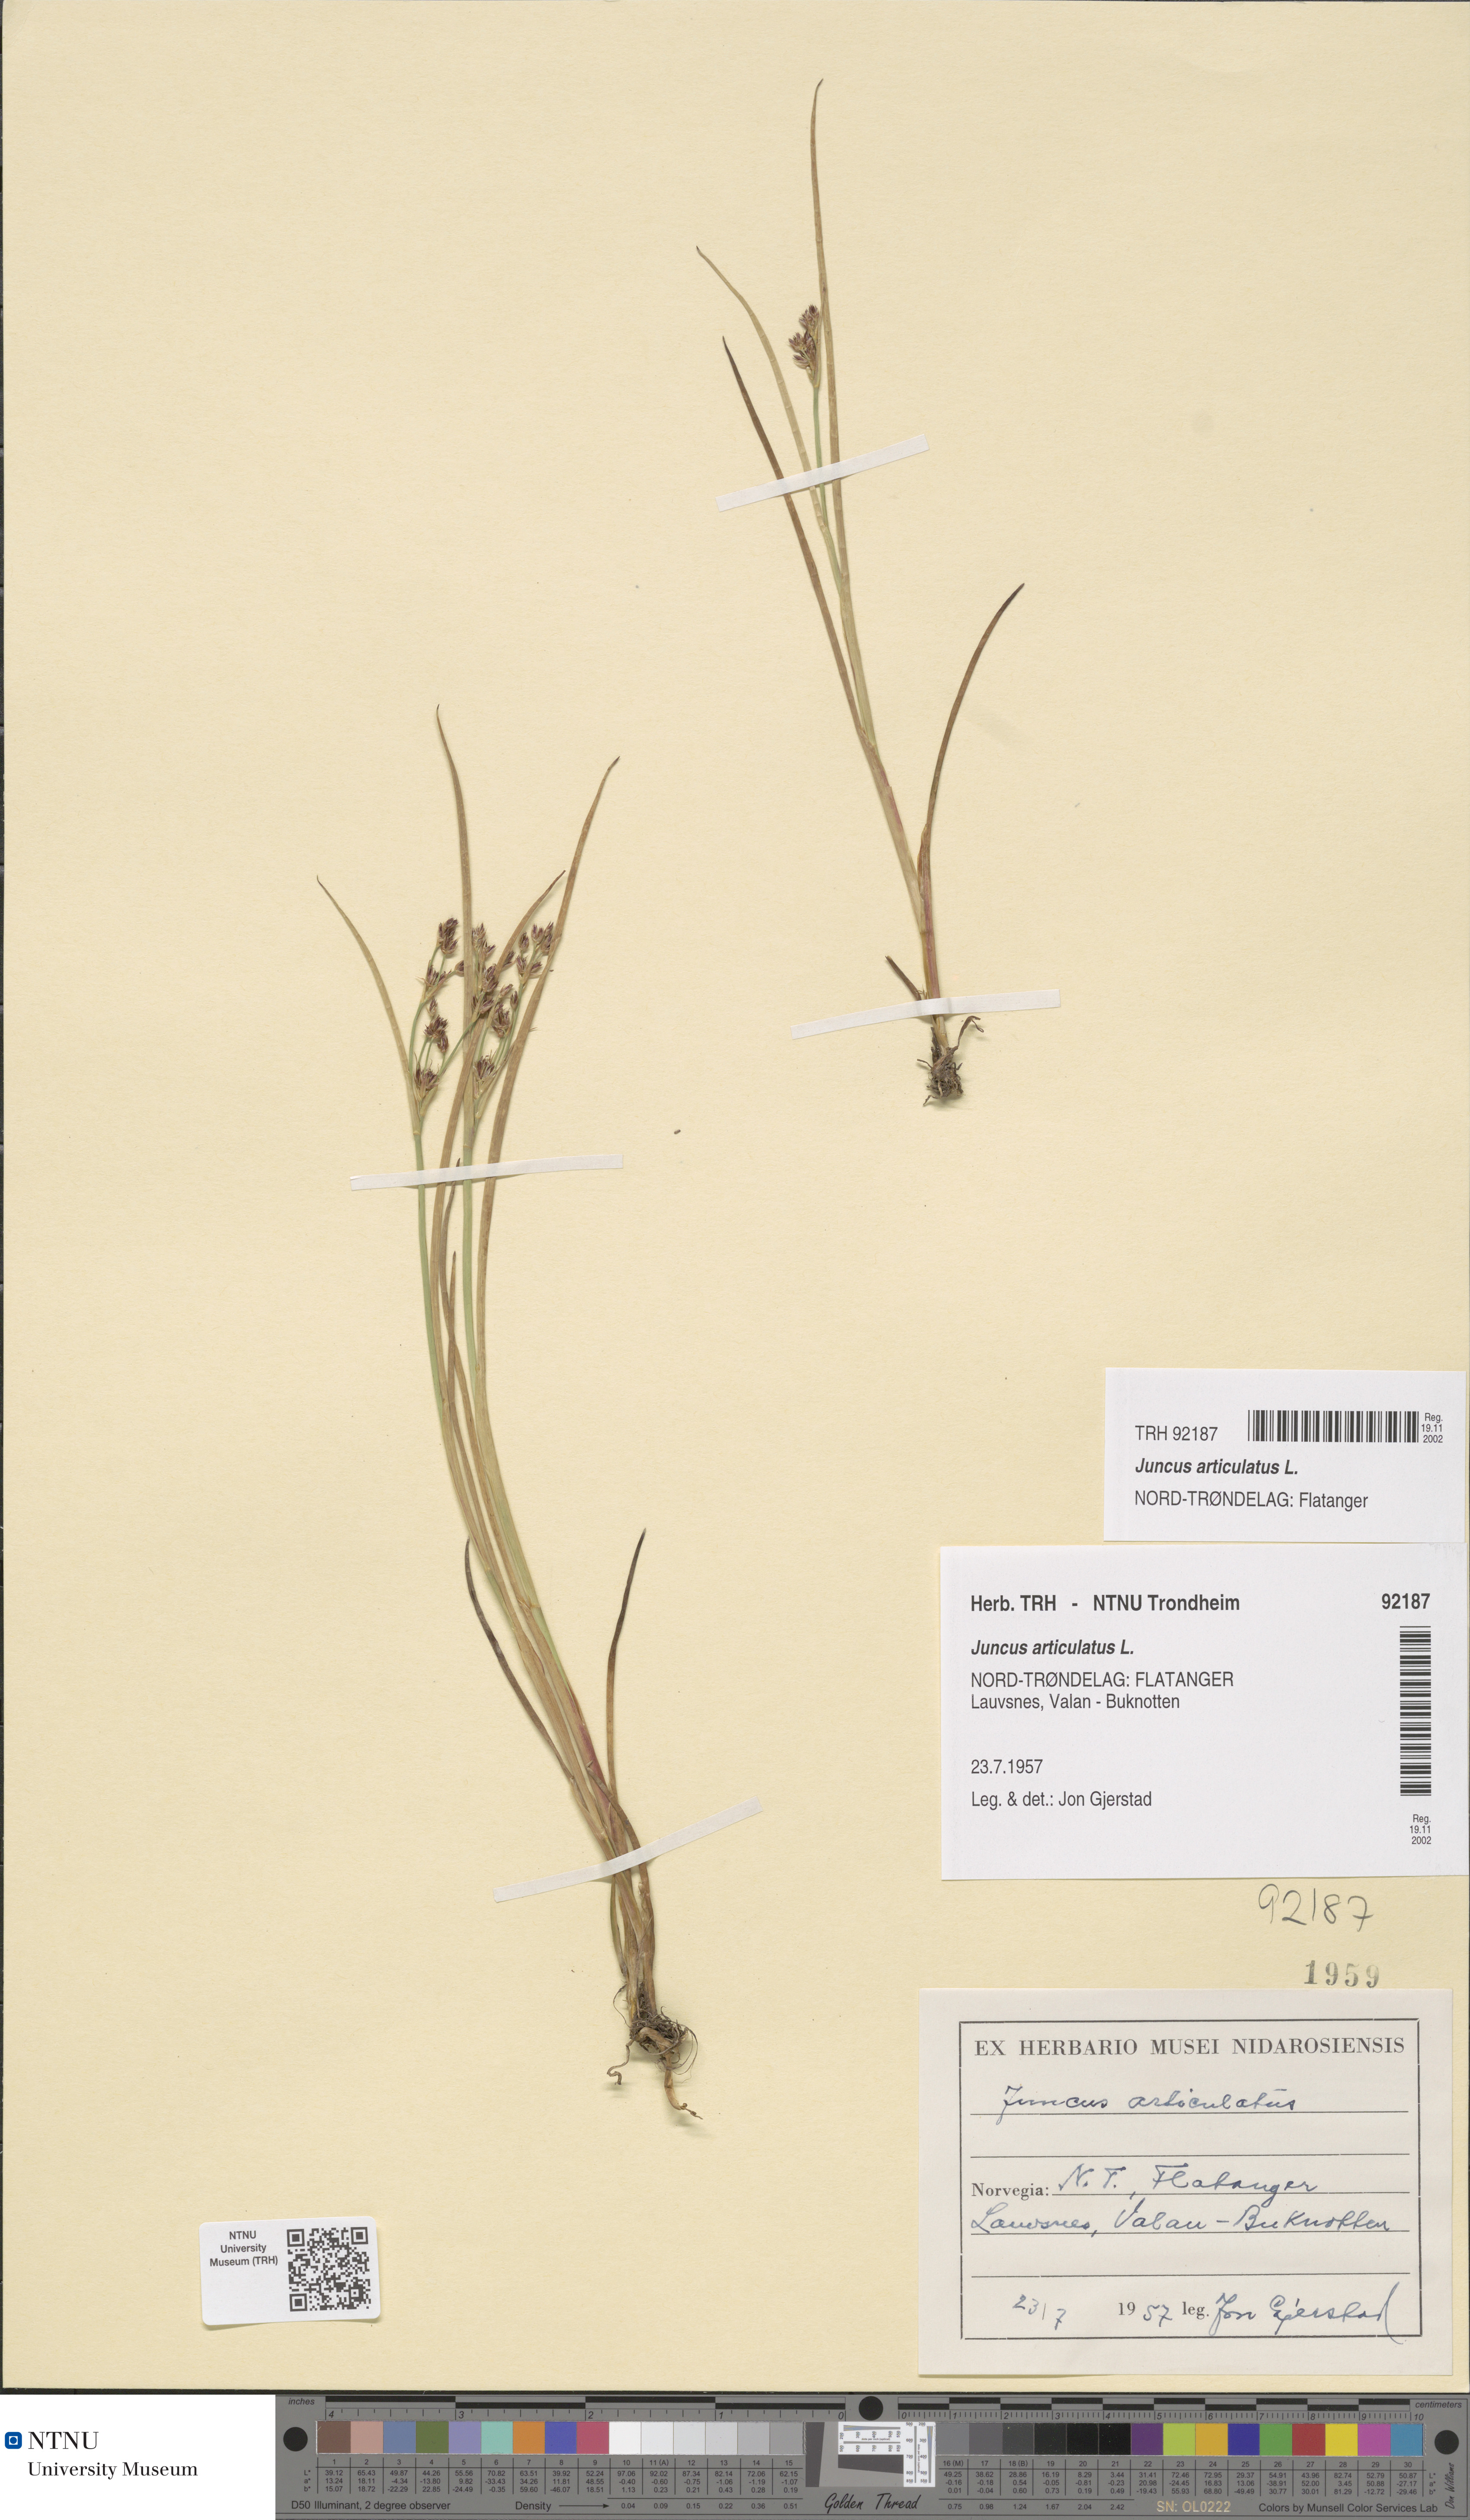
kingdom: Plantae
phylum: Tracheophyta
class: Liliopsida
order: Poales
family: Juncaceae
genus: Juncus
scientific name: Juncus articulatus
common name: Jointed rush
